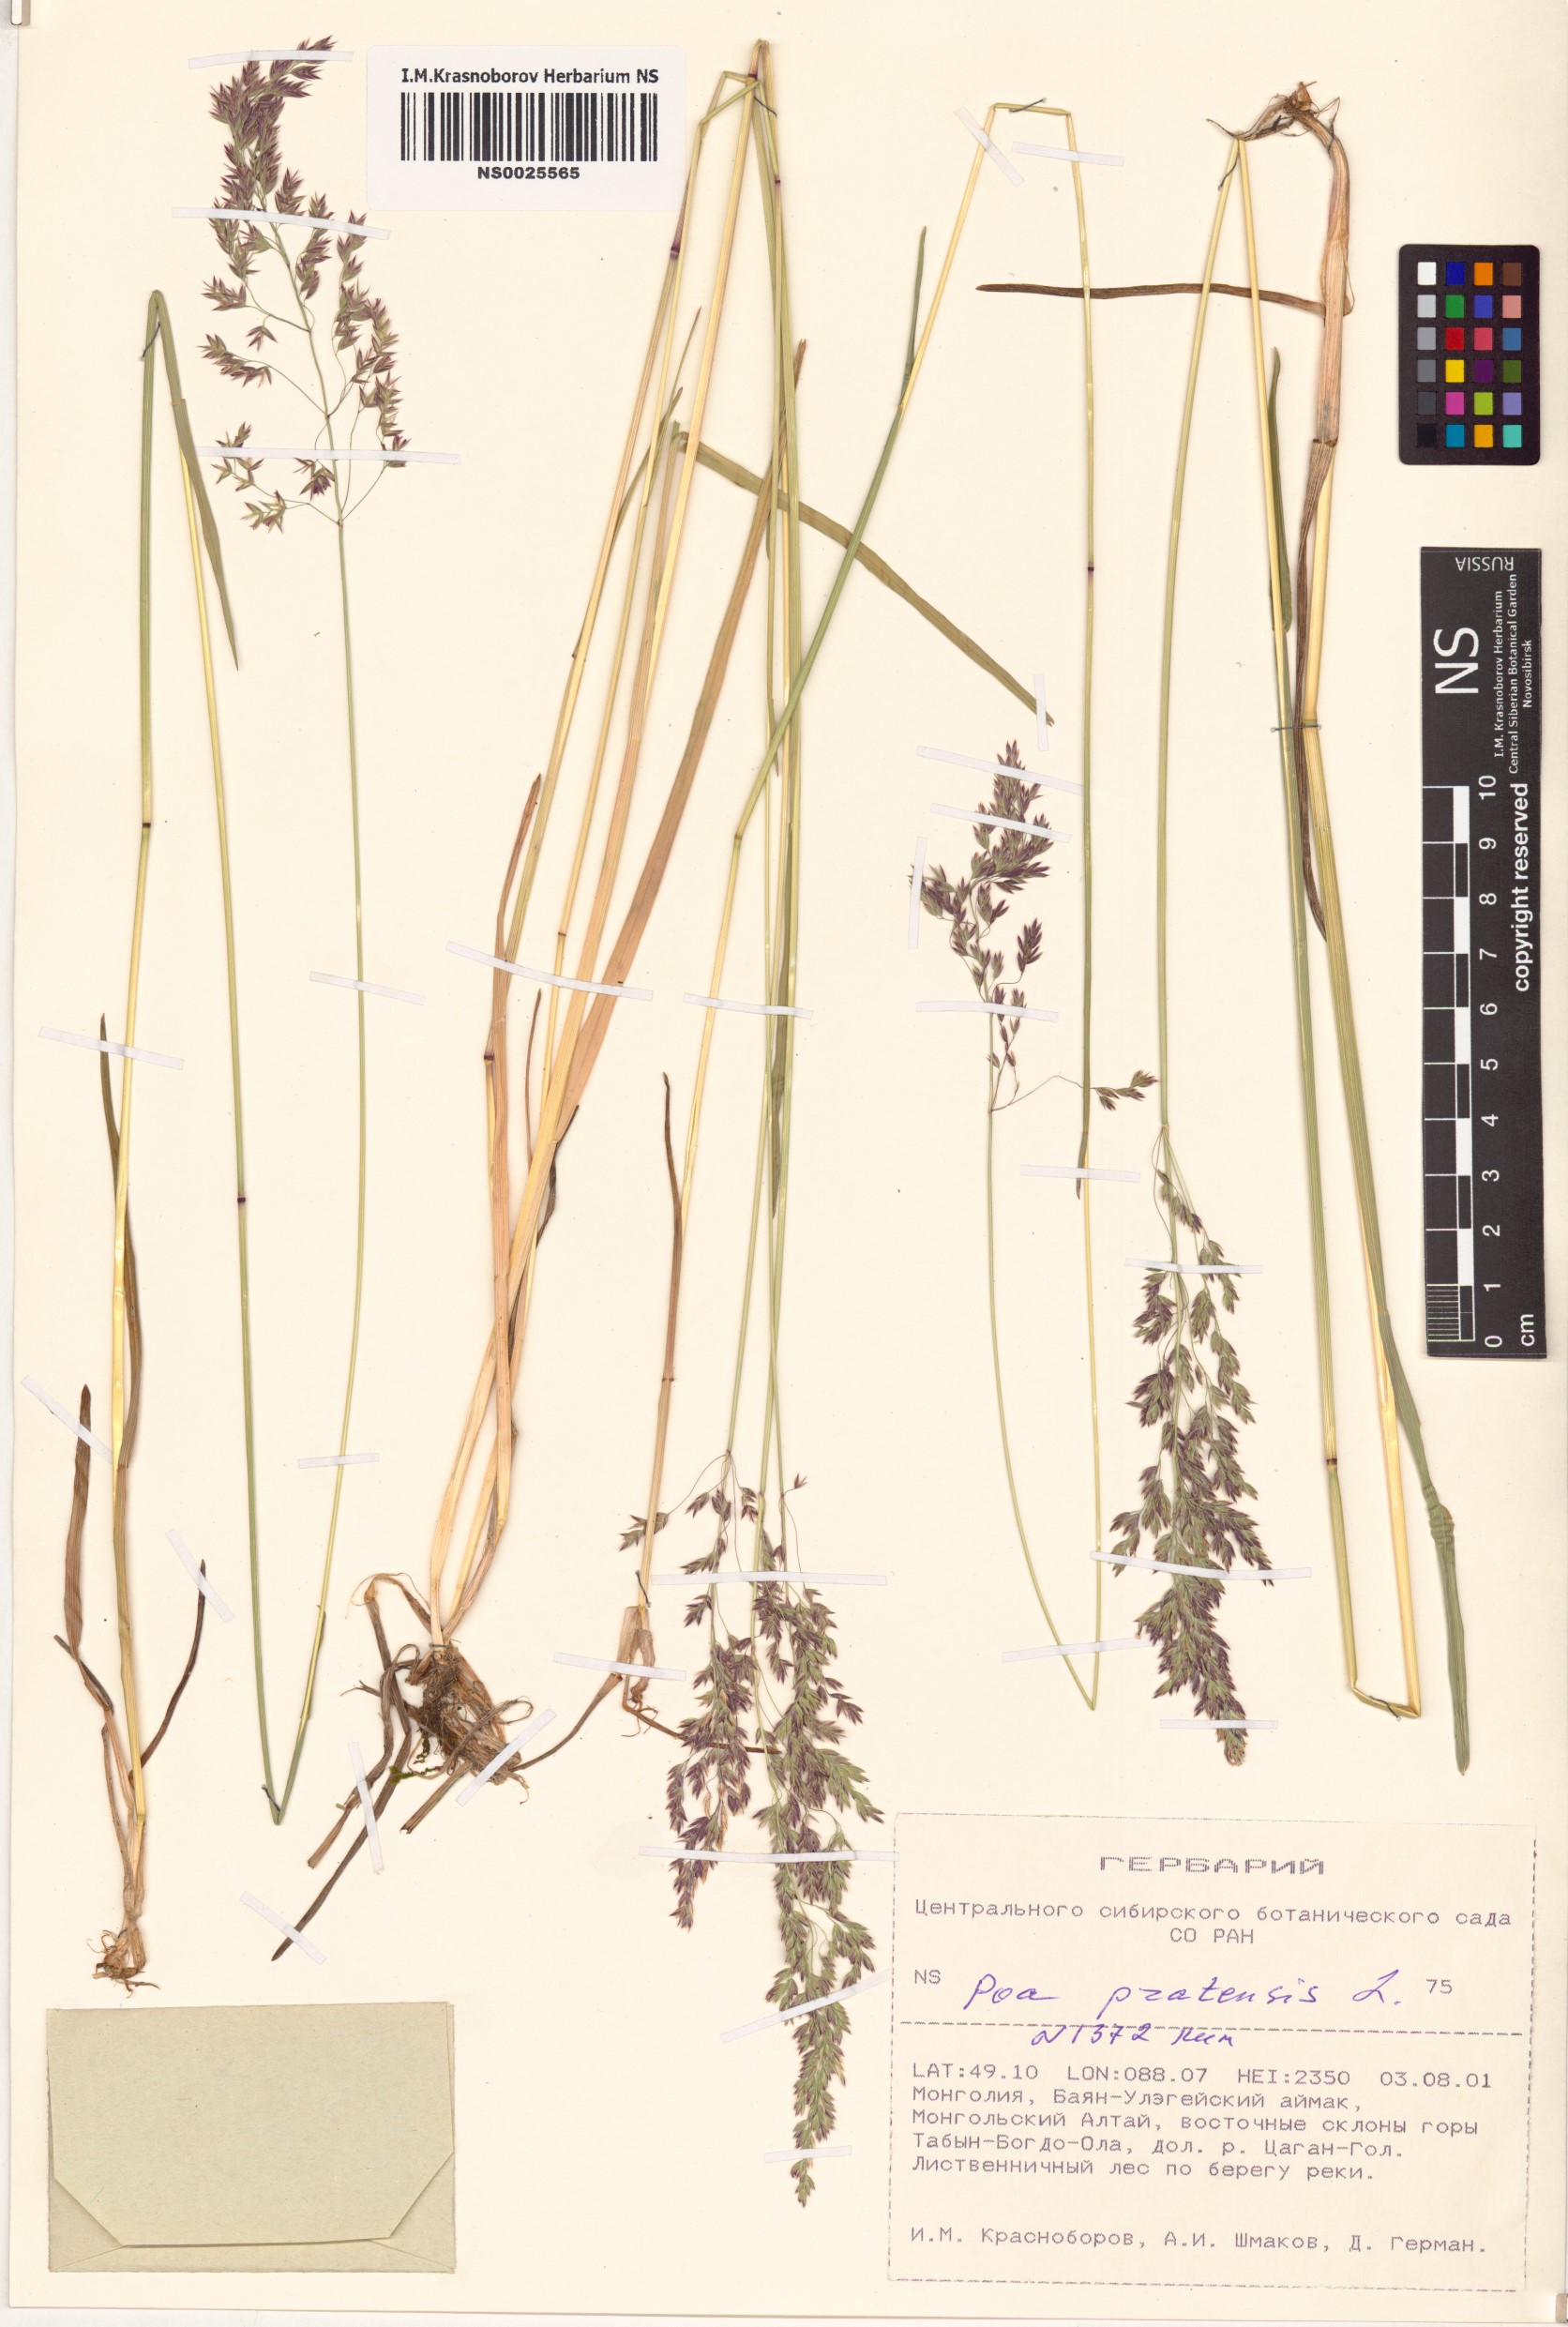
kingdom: Plantae
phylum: Tracheophyta
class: Liliopsida
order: Poales
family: Poaceae
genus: Poa
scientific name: Poa pratensis
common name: Kentucky bluegrass
